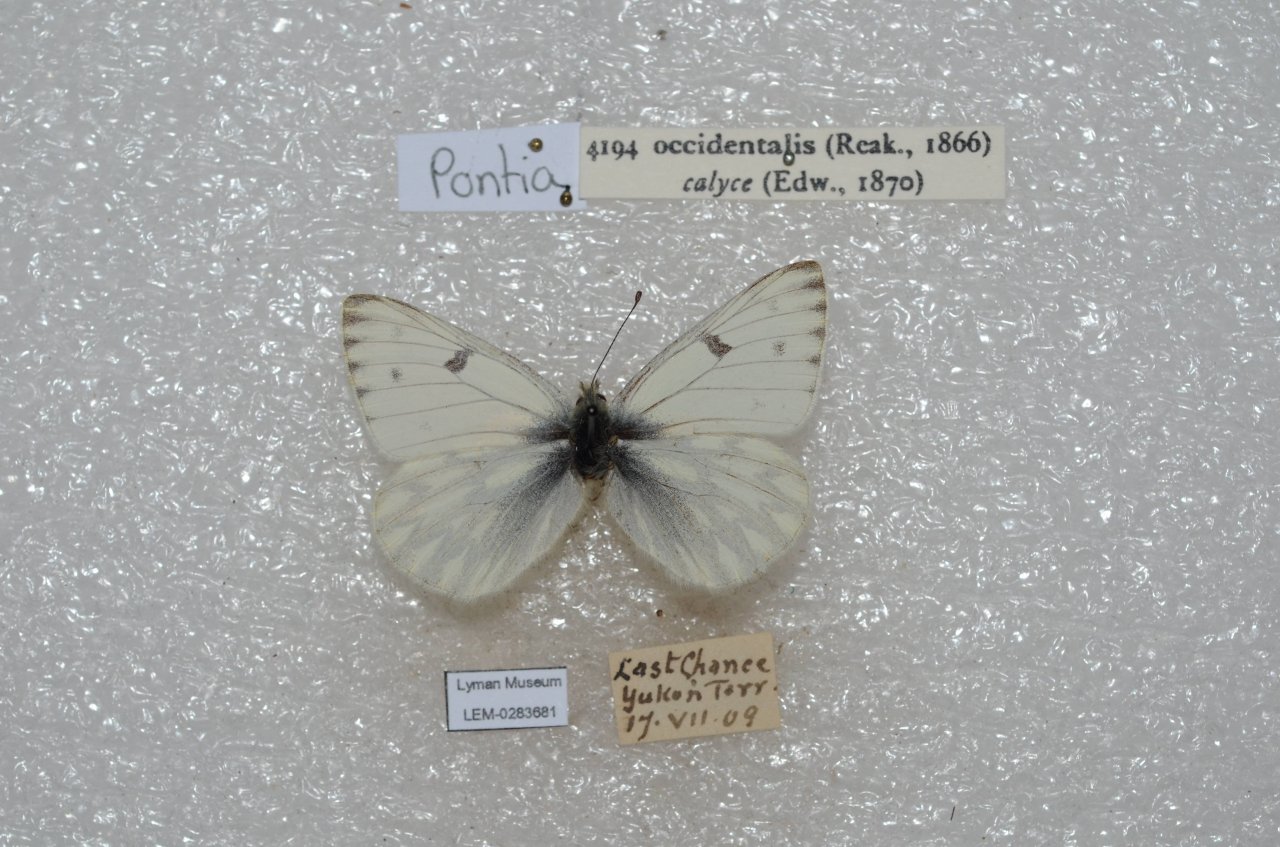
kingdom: Animalia
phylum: Arthropoda
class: Insecta
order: Lepidoptera
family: Pieridae
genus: Pontia
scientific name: Pontia occidentalis
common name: Western White
